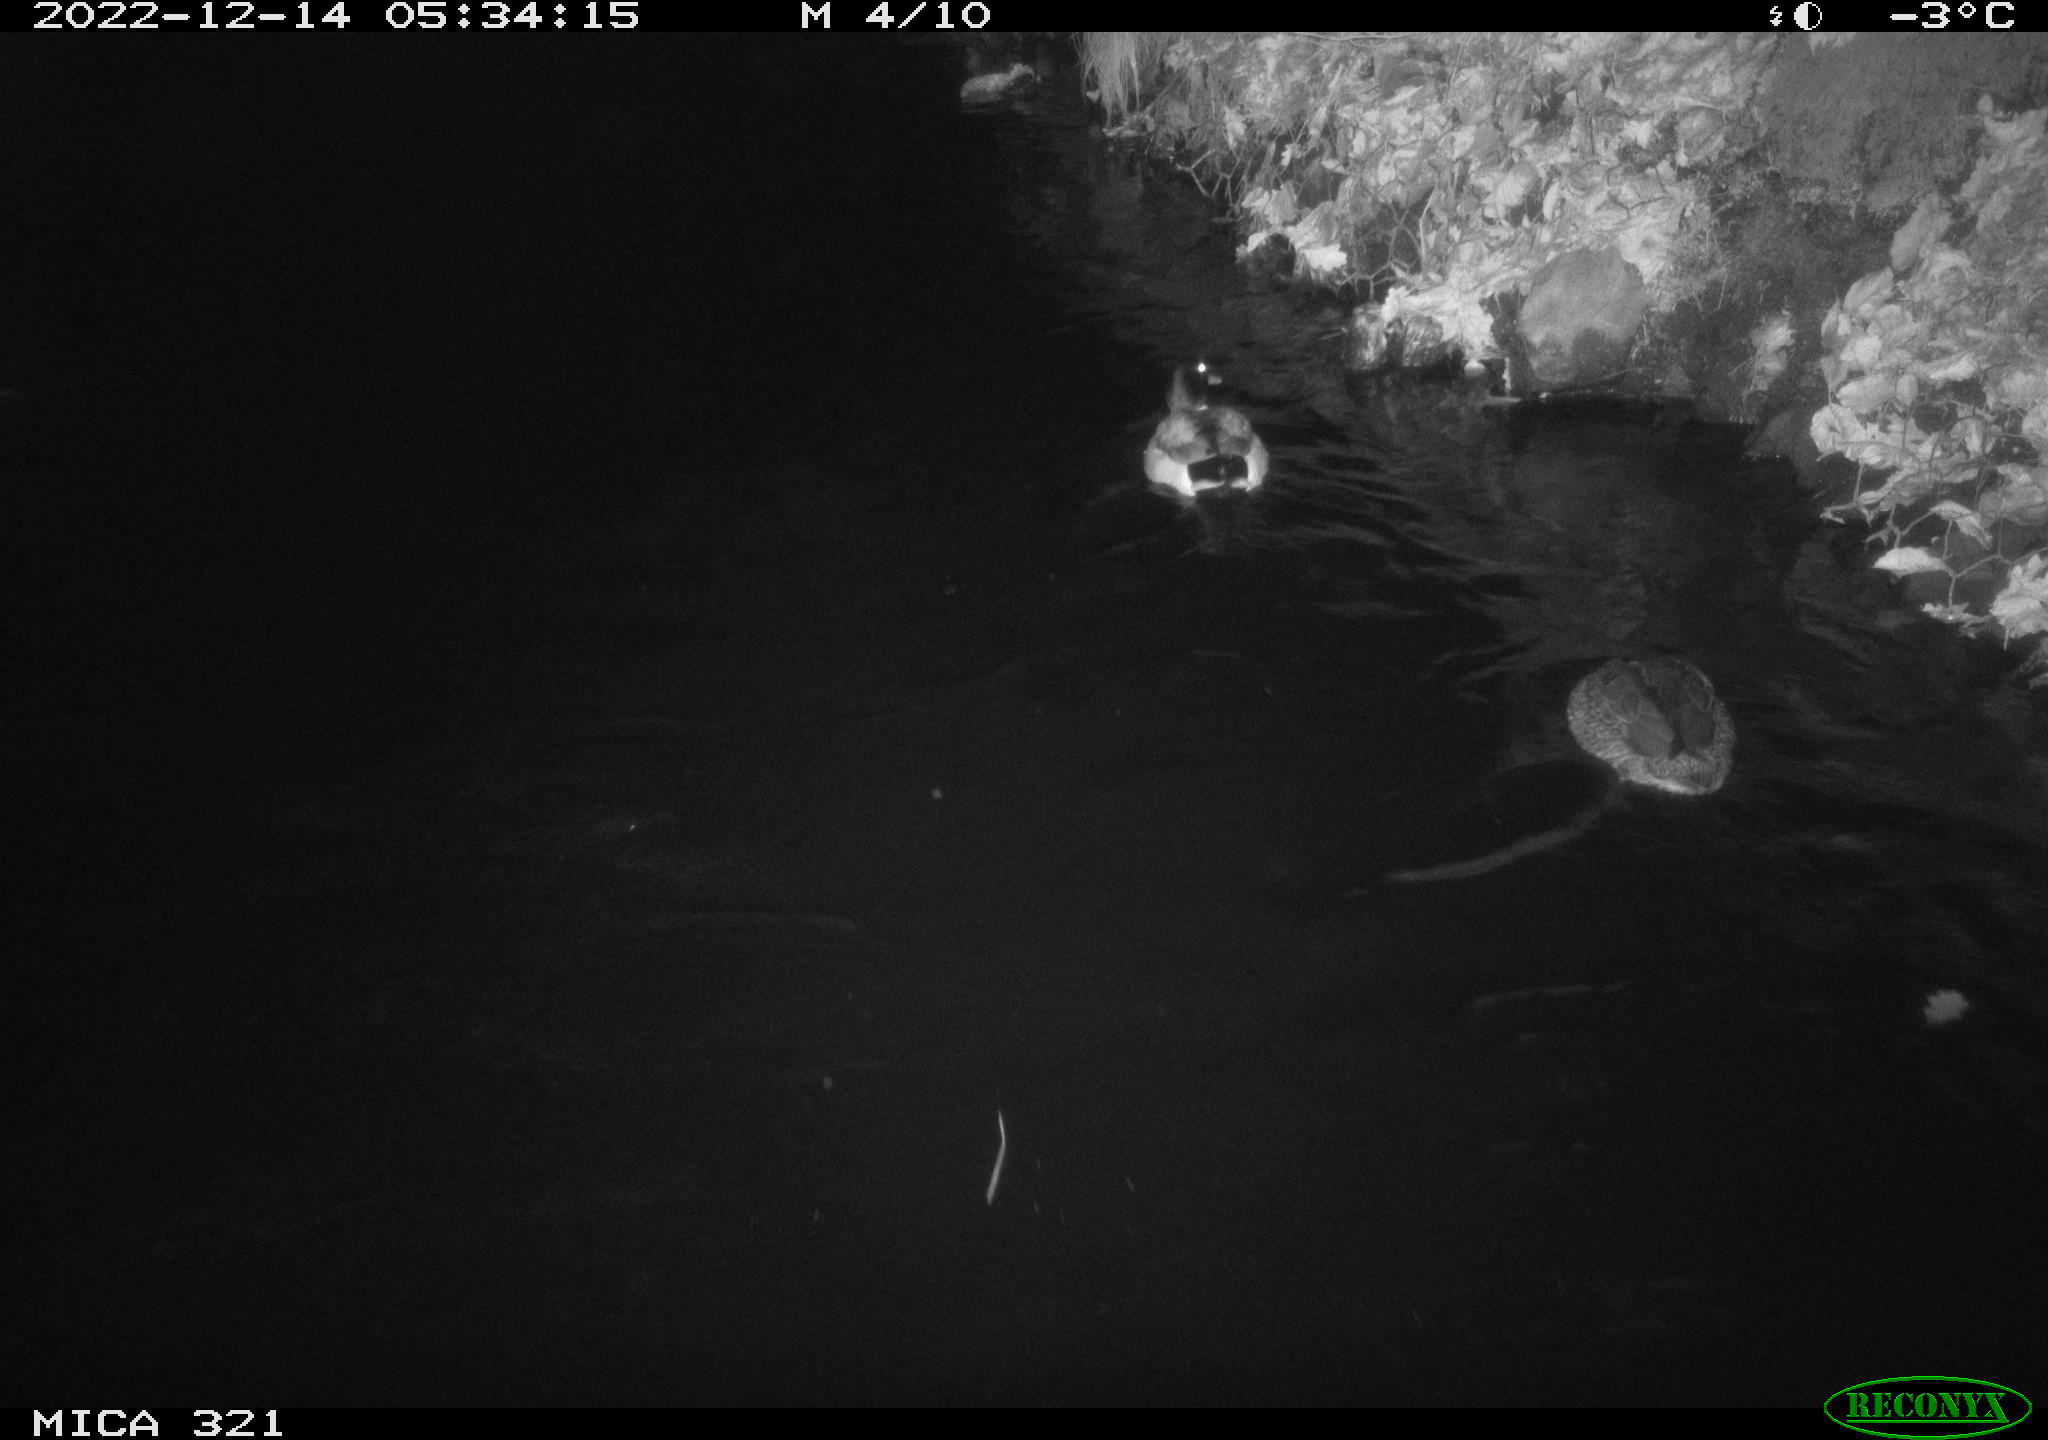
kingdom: Animalia
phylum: Chordata
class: Aves
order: Anseriformes
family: Anatidae
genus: Anas
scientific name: Anas
